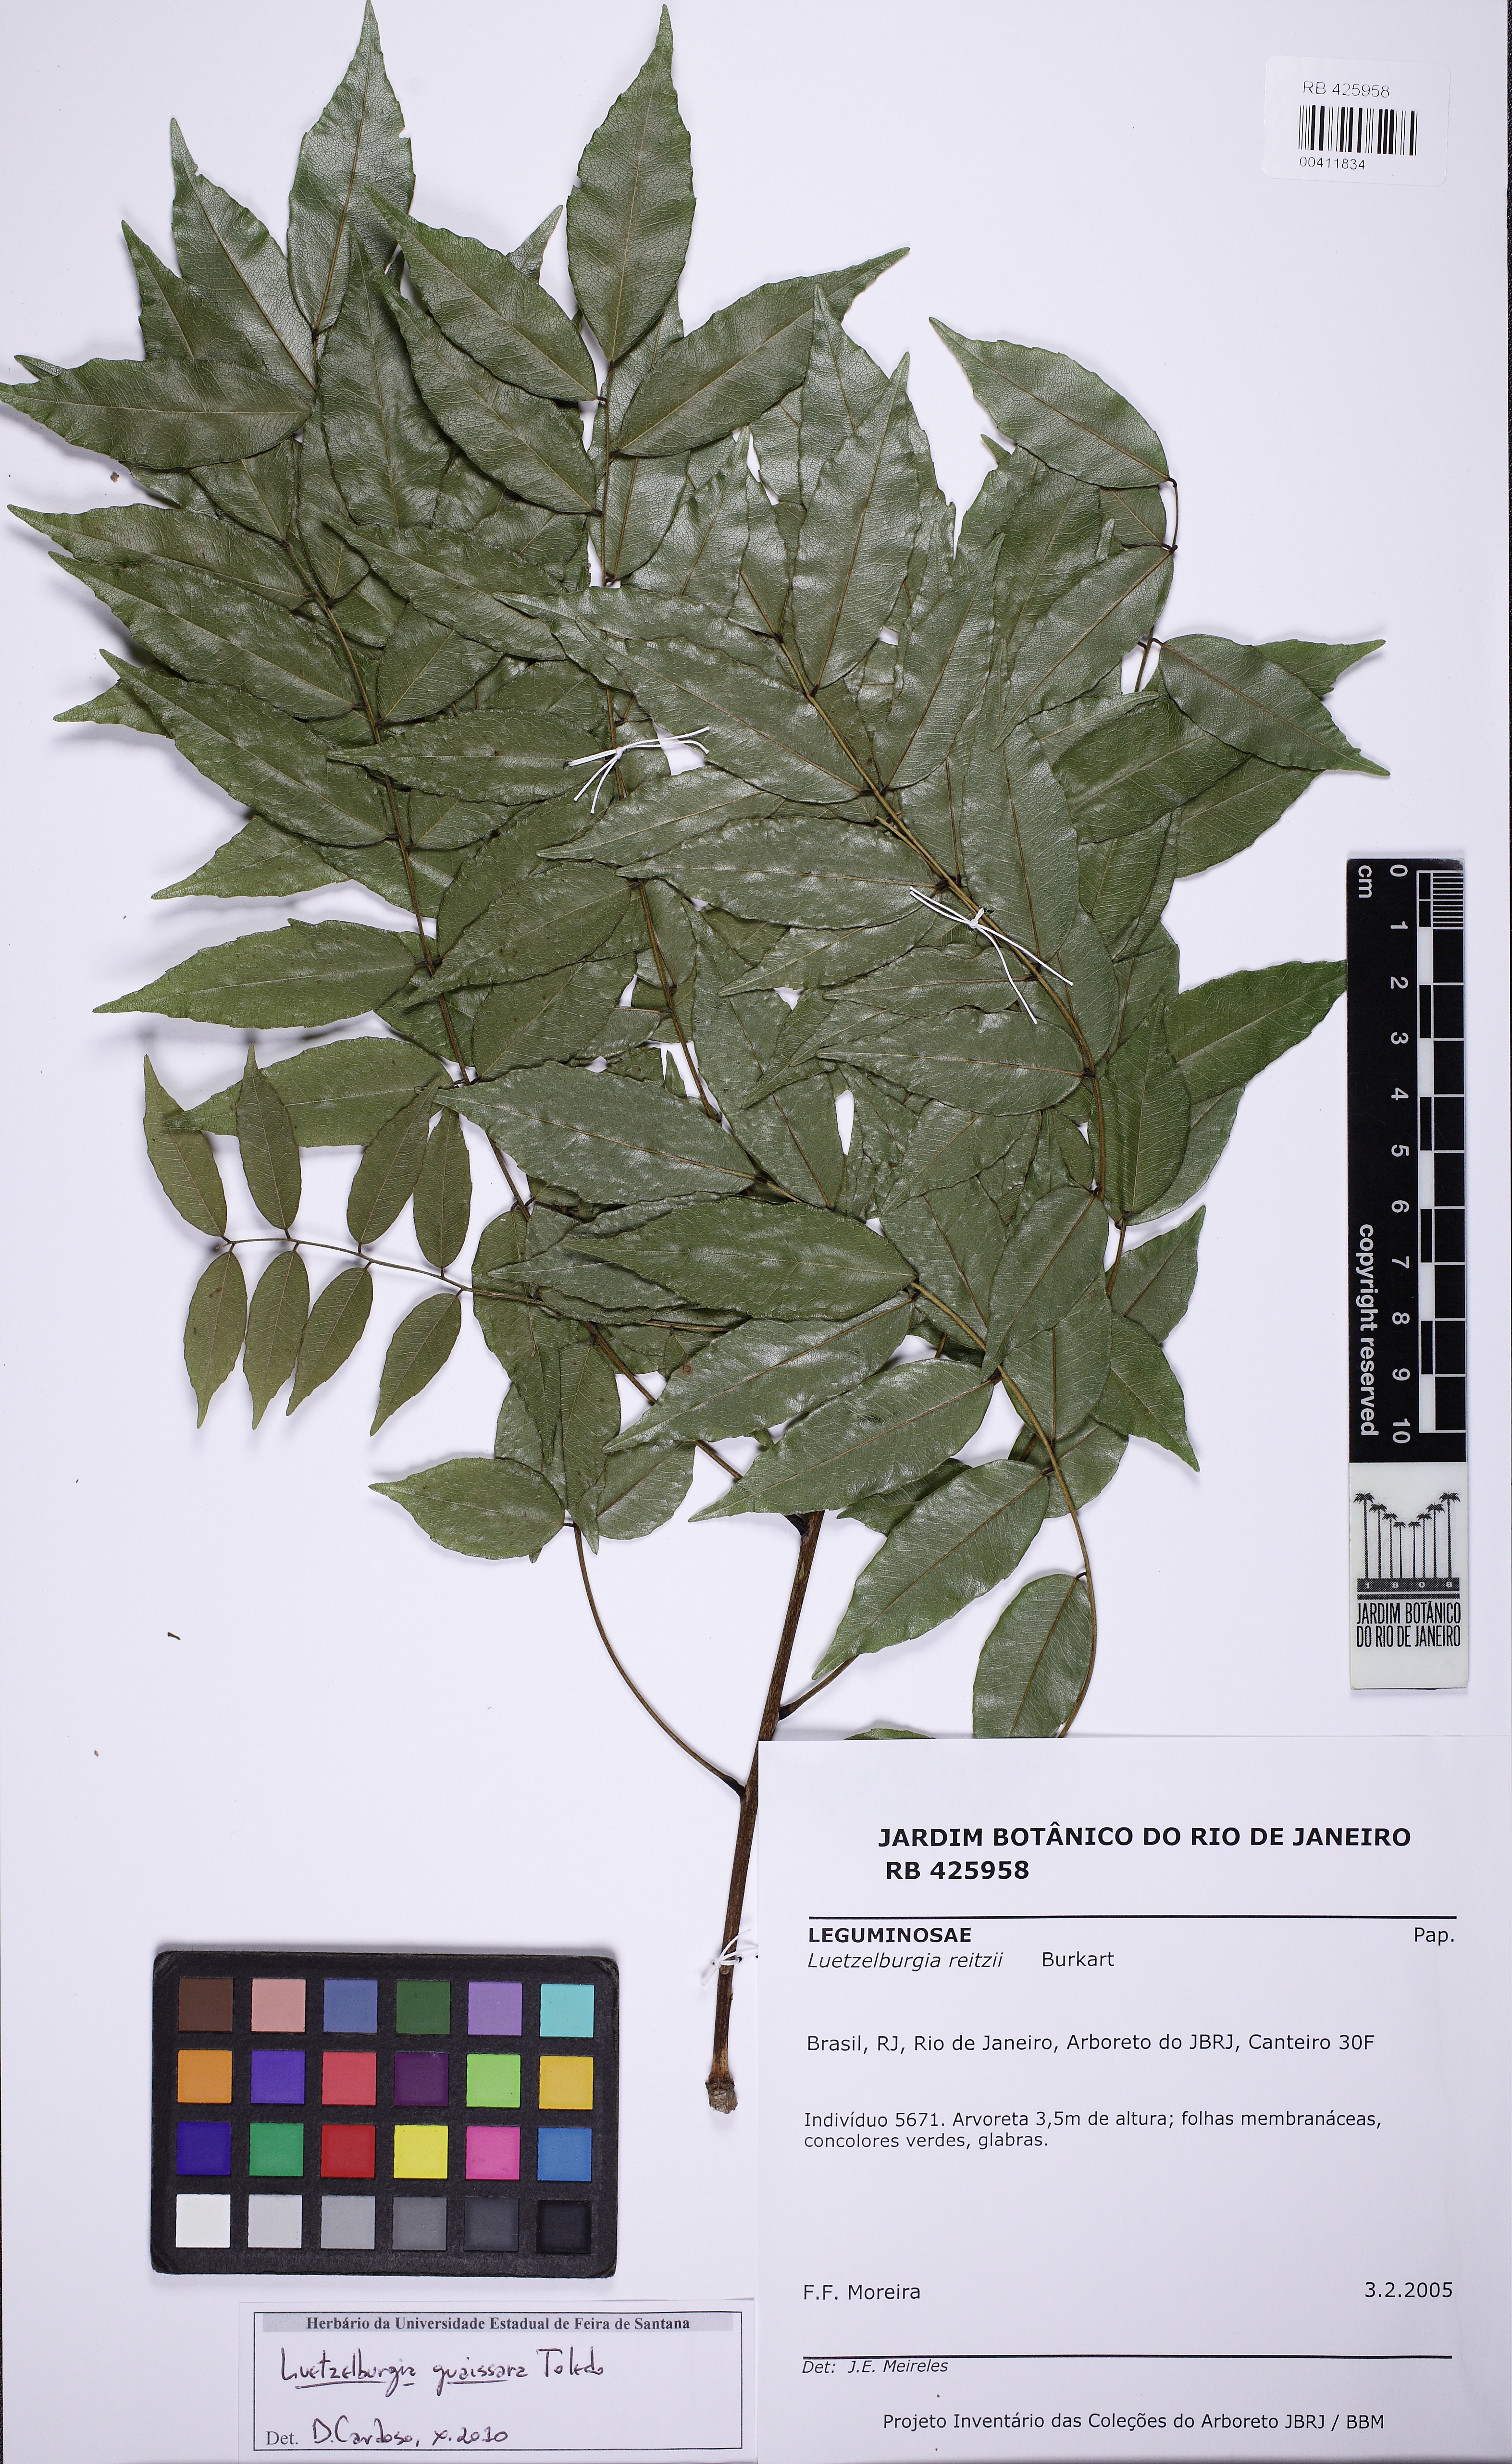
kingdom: Plantae
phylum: Tracheophyta
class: Magnoliopsida
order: Fabales
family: Fabaceae
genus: Luetzelburgia
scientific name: Luetzelburgia guaissara
